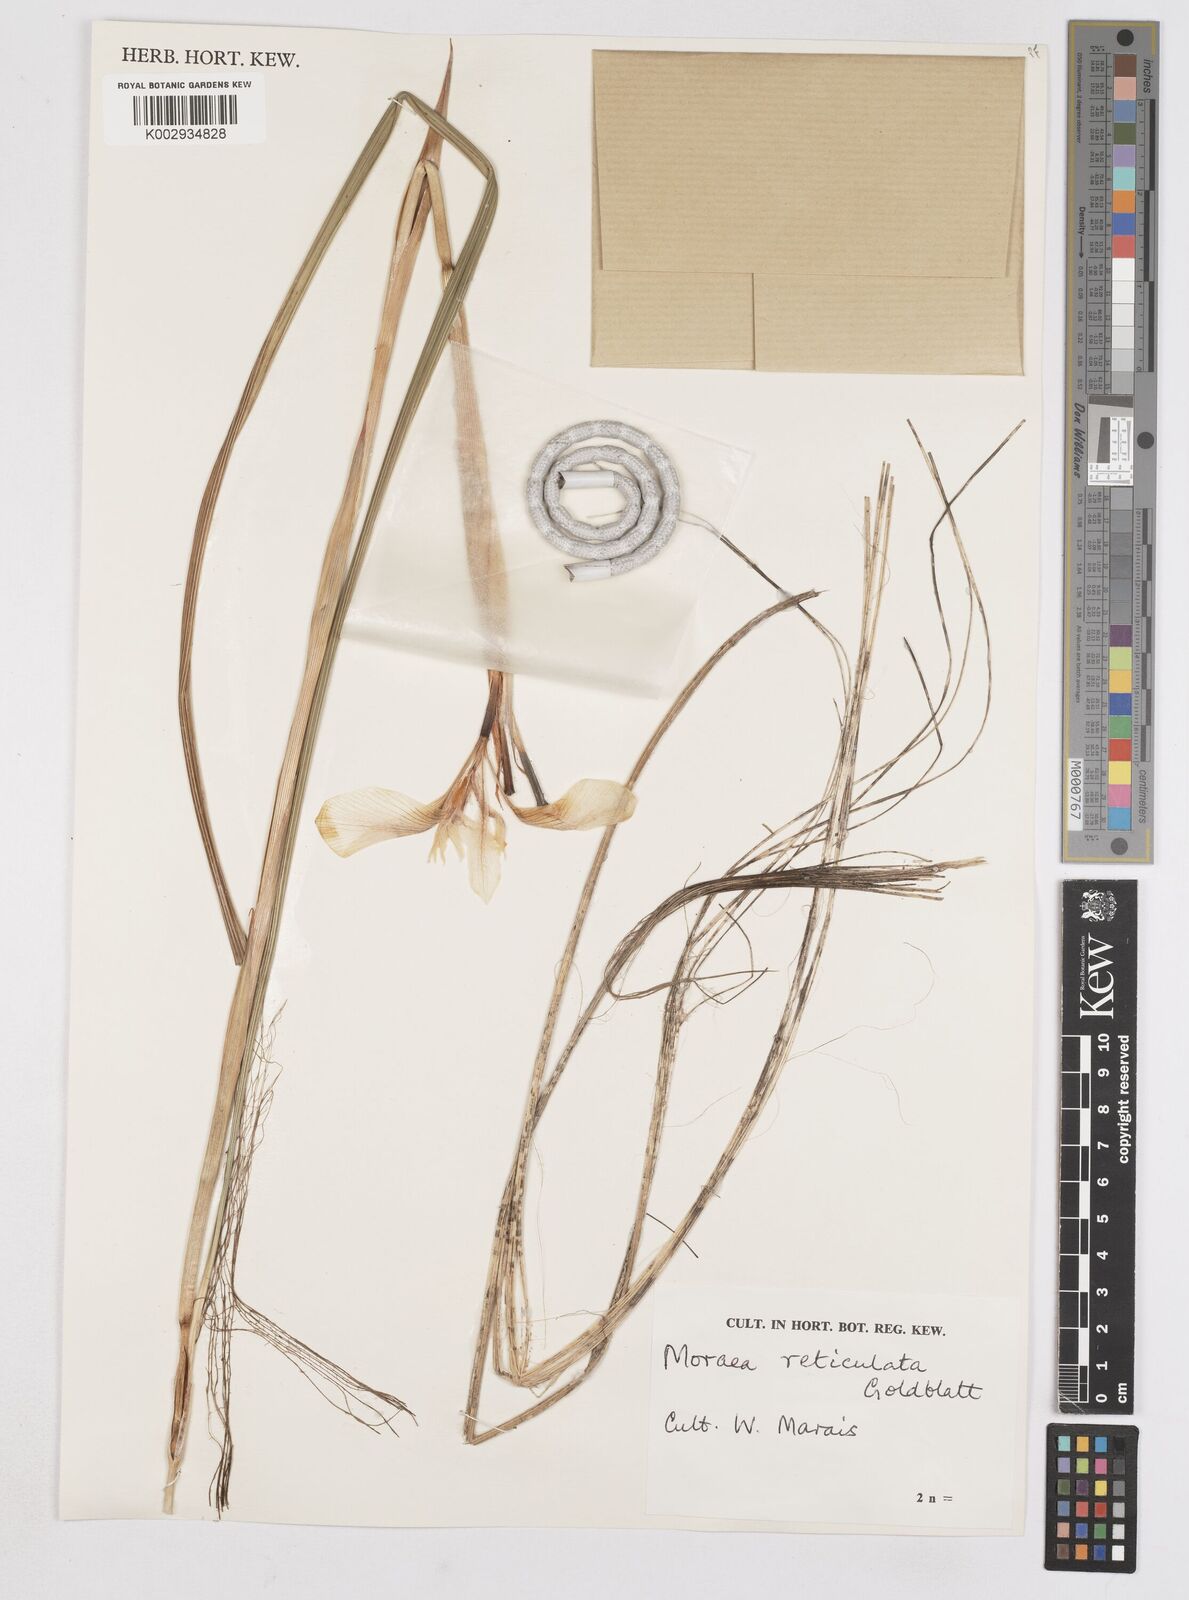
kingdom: Plantae
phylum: Tracheophyta
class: Liliopsida
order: Asparagales
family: Iridaceae
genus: Moraea
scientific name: Moraea robusta
